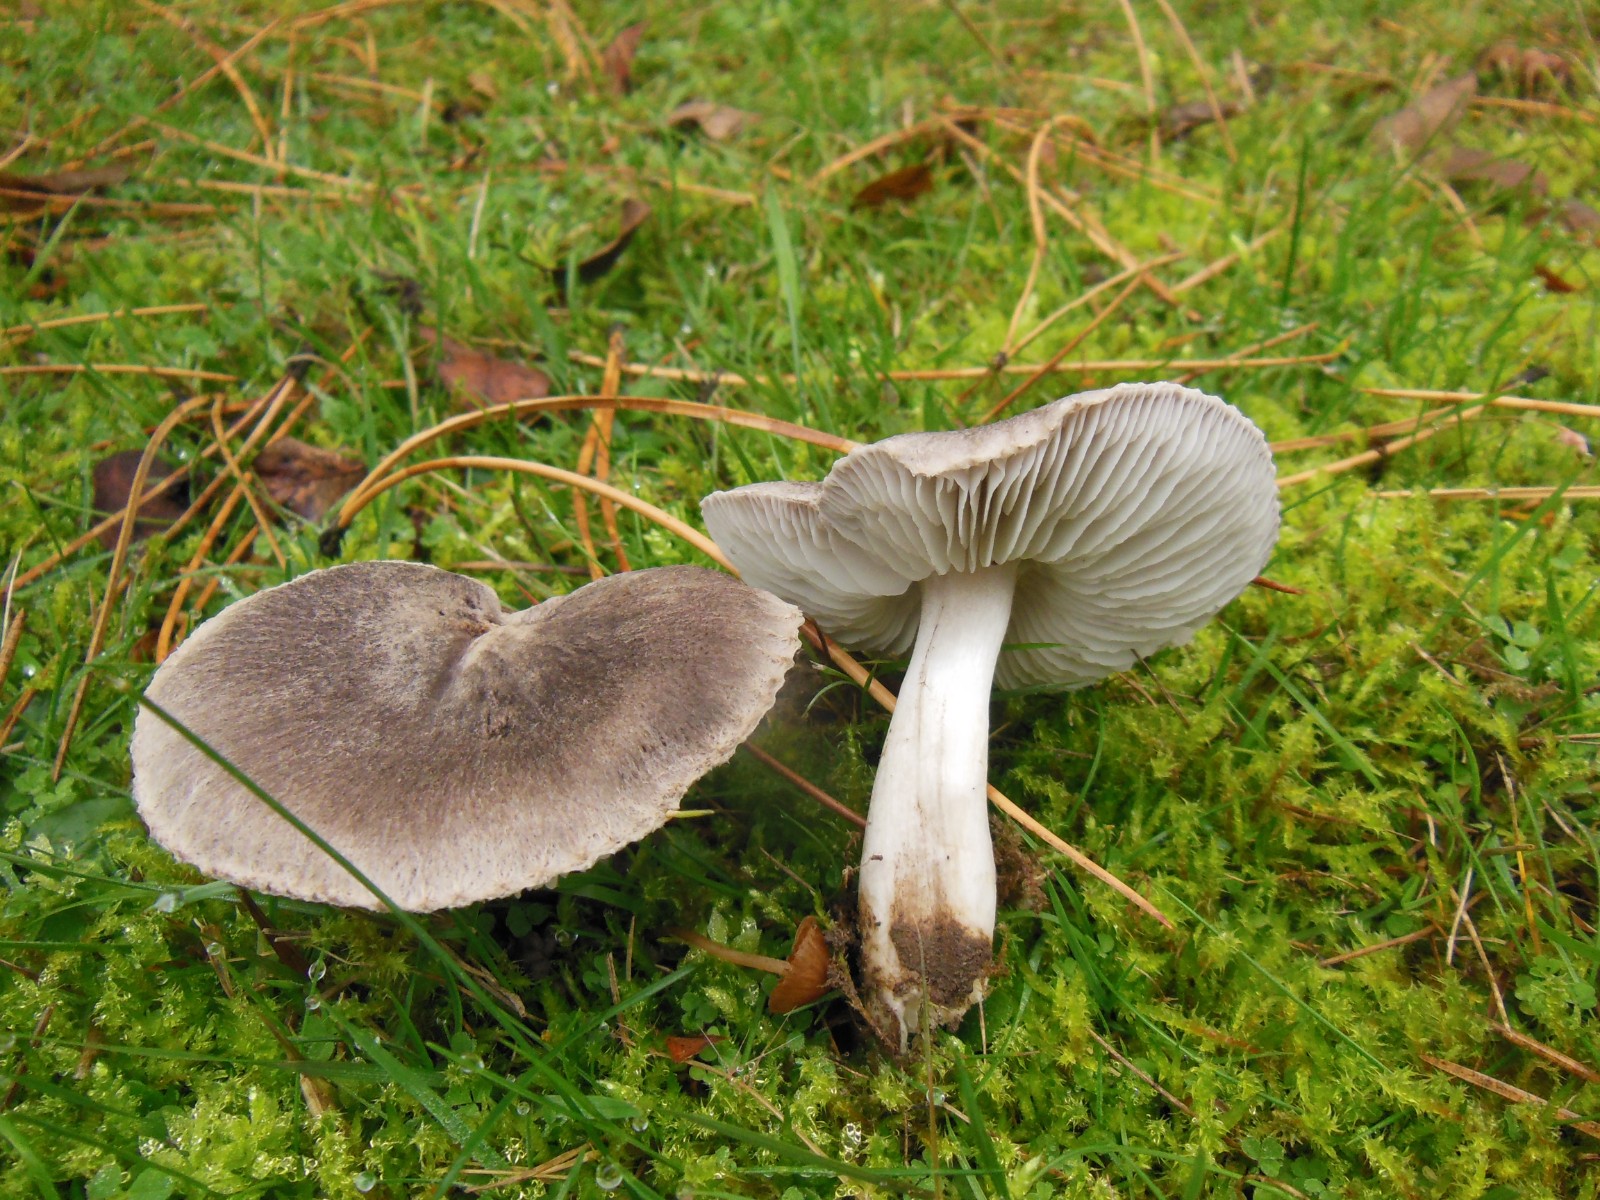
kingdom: Fungi
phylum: Basidiomycota
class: Agaricomycetes
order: Agaricales
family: Tricholomataceae
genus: Tricholoma
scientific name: Tricholoma terreum
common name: jordfarvet ridderhat
